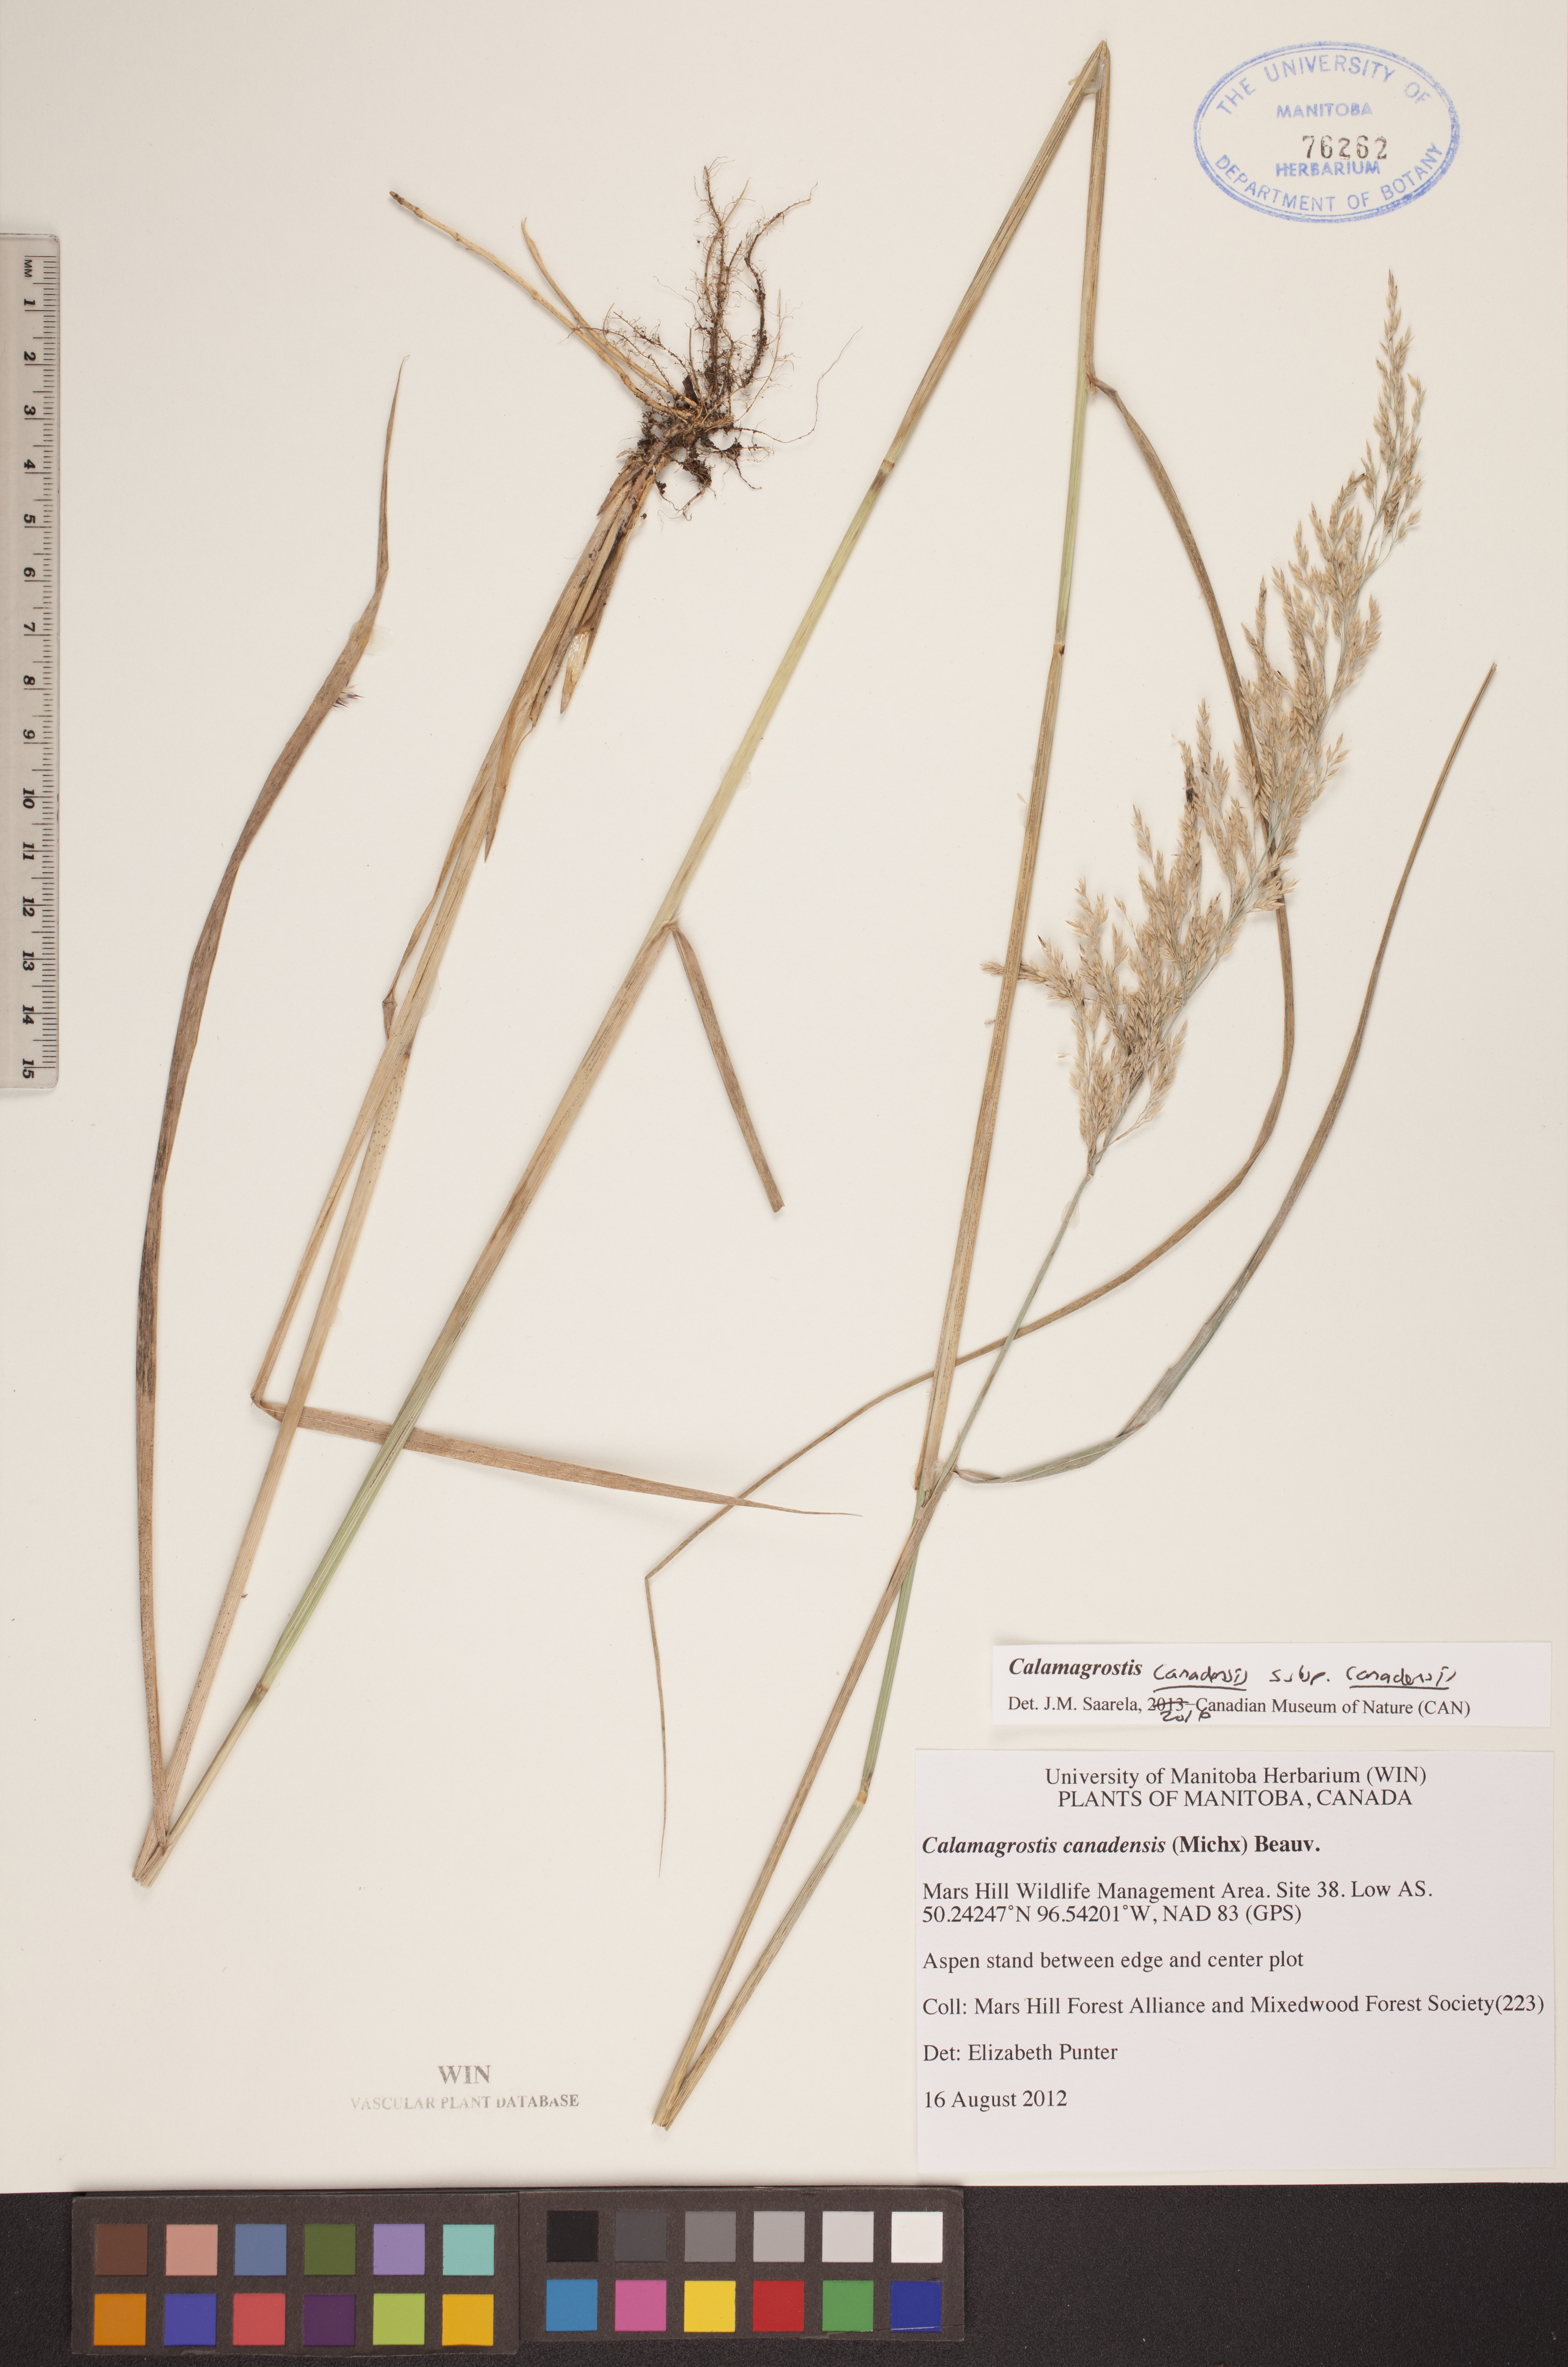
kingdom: Plantae
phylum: Tracheophyta
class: Liliopsida
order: Poales
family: Poaceae
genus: Calamagrostis
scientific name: Calamagrostis canadensis
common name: Canada bluejoint
